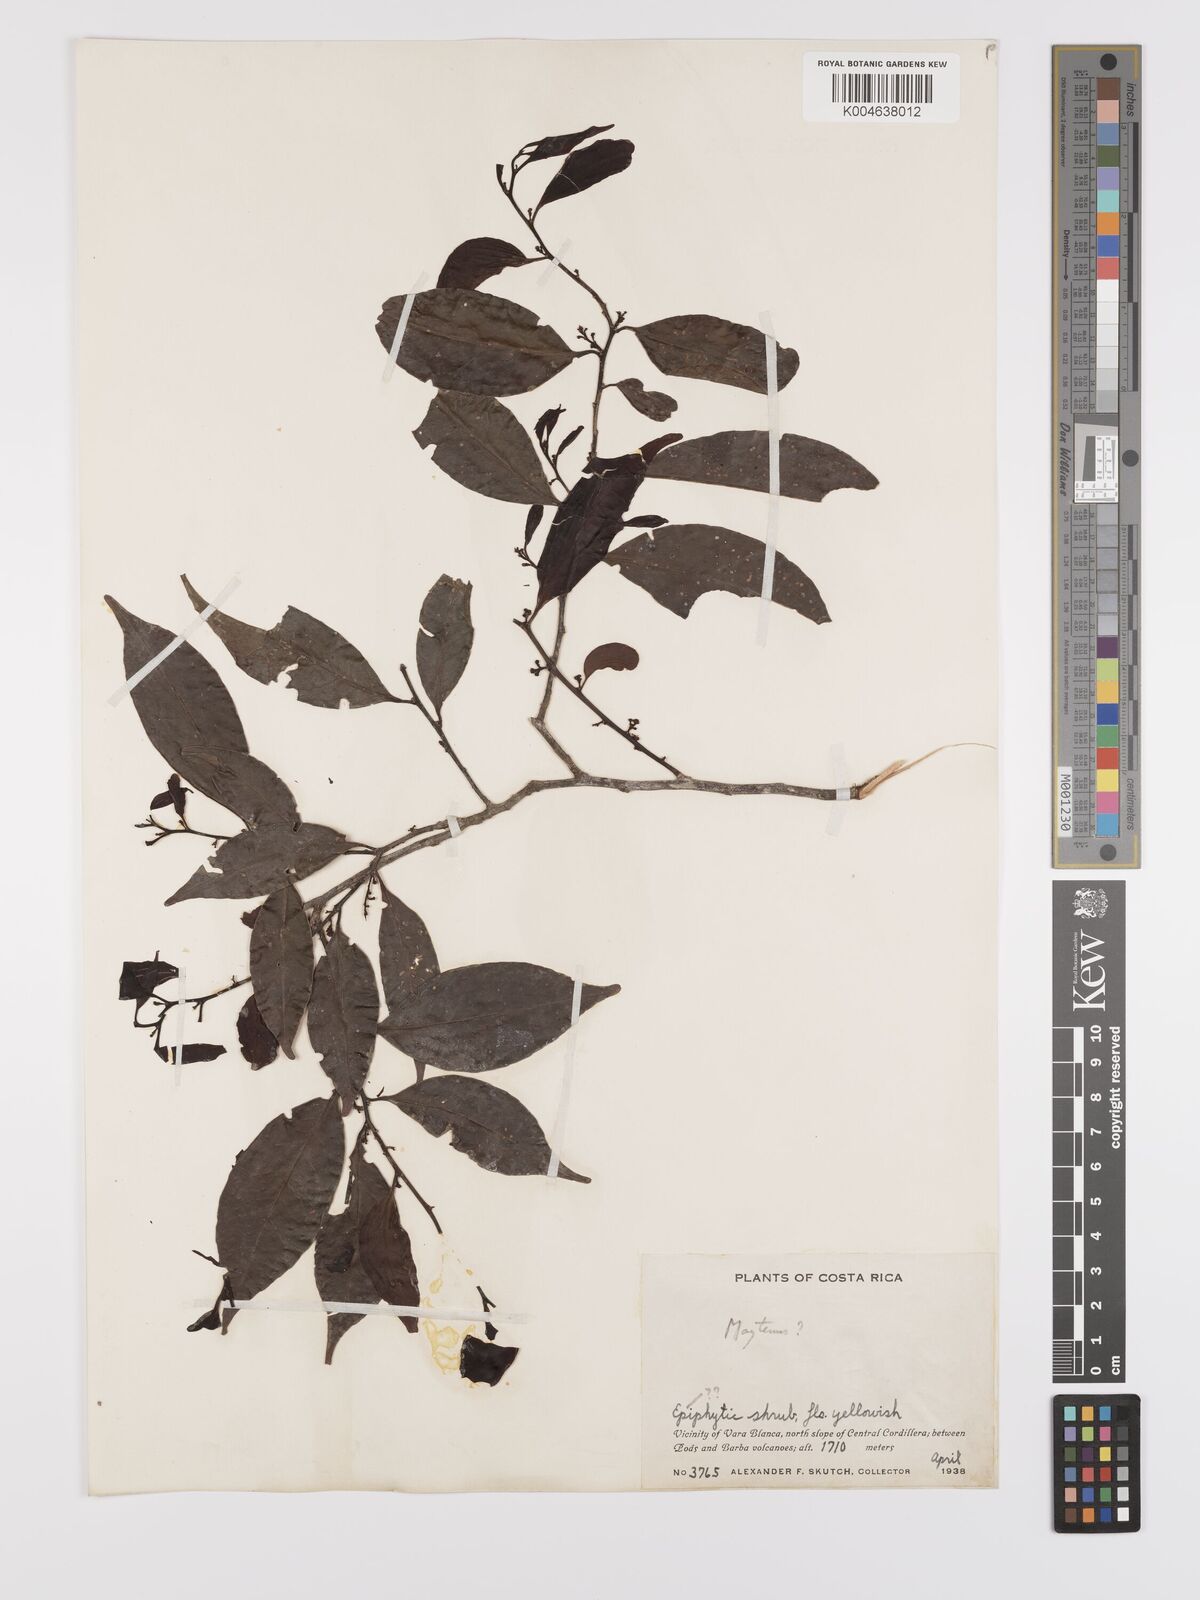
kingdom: Plantae
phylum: Tracheophyta
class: Magnoliopsida
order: Celastrales
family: Celastraceae
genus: Maytenus
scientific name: Maytenus
